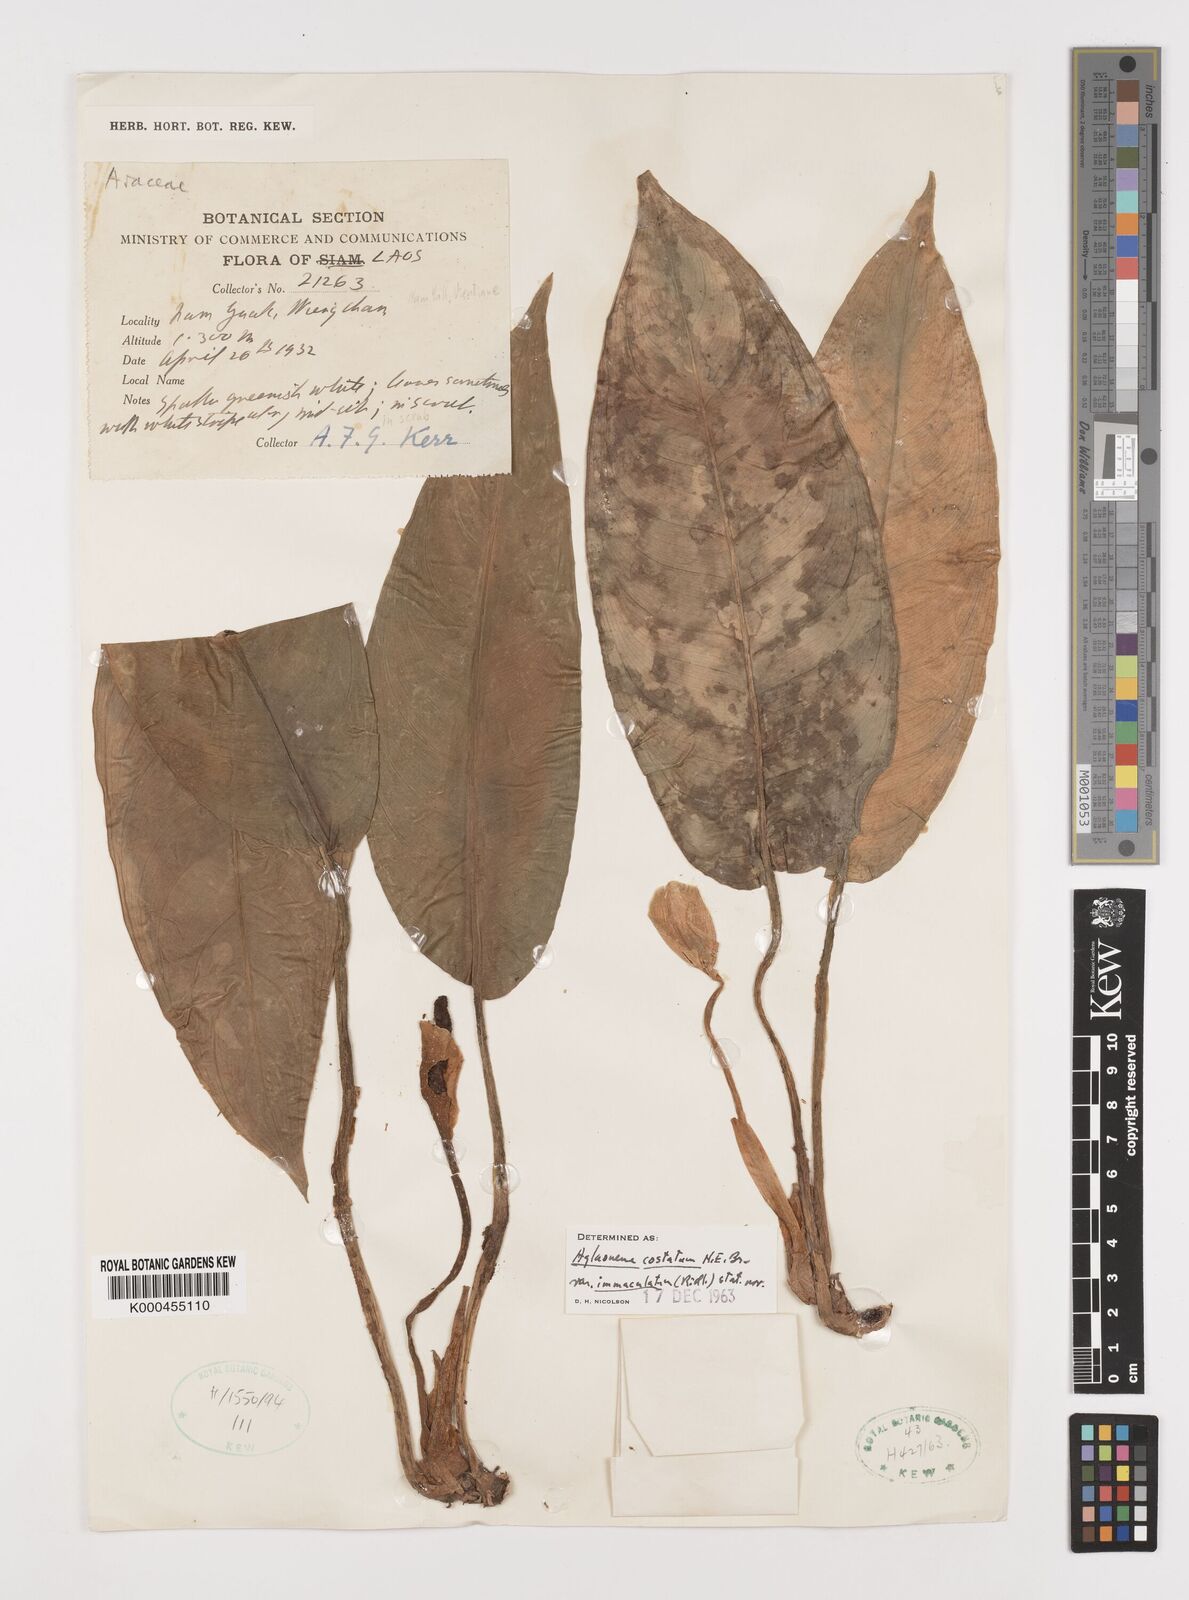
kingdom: Plantae
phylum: Tracheophyta
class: Liliopsida
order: Alismatales
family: Araceae
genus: Aglaonema
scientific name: Aglaonema costatum
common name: Chinese evergreen
